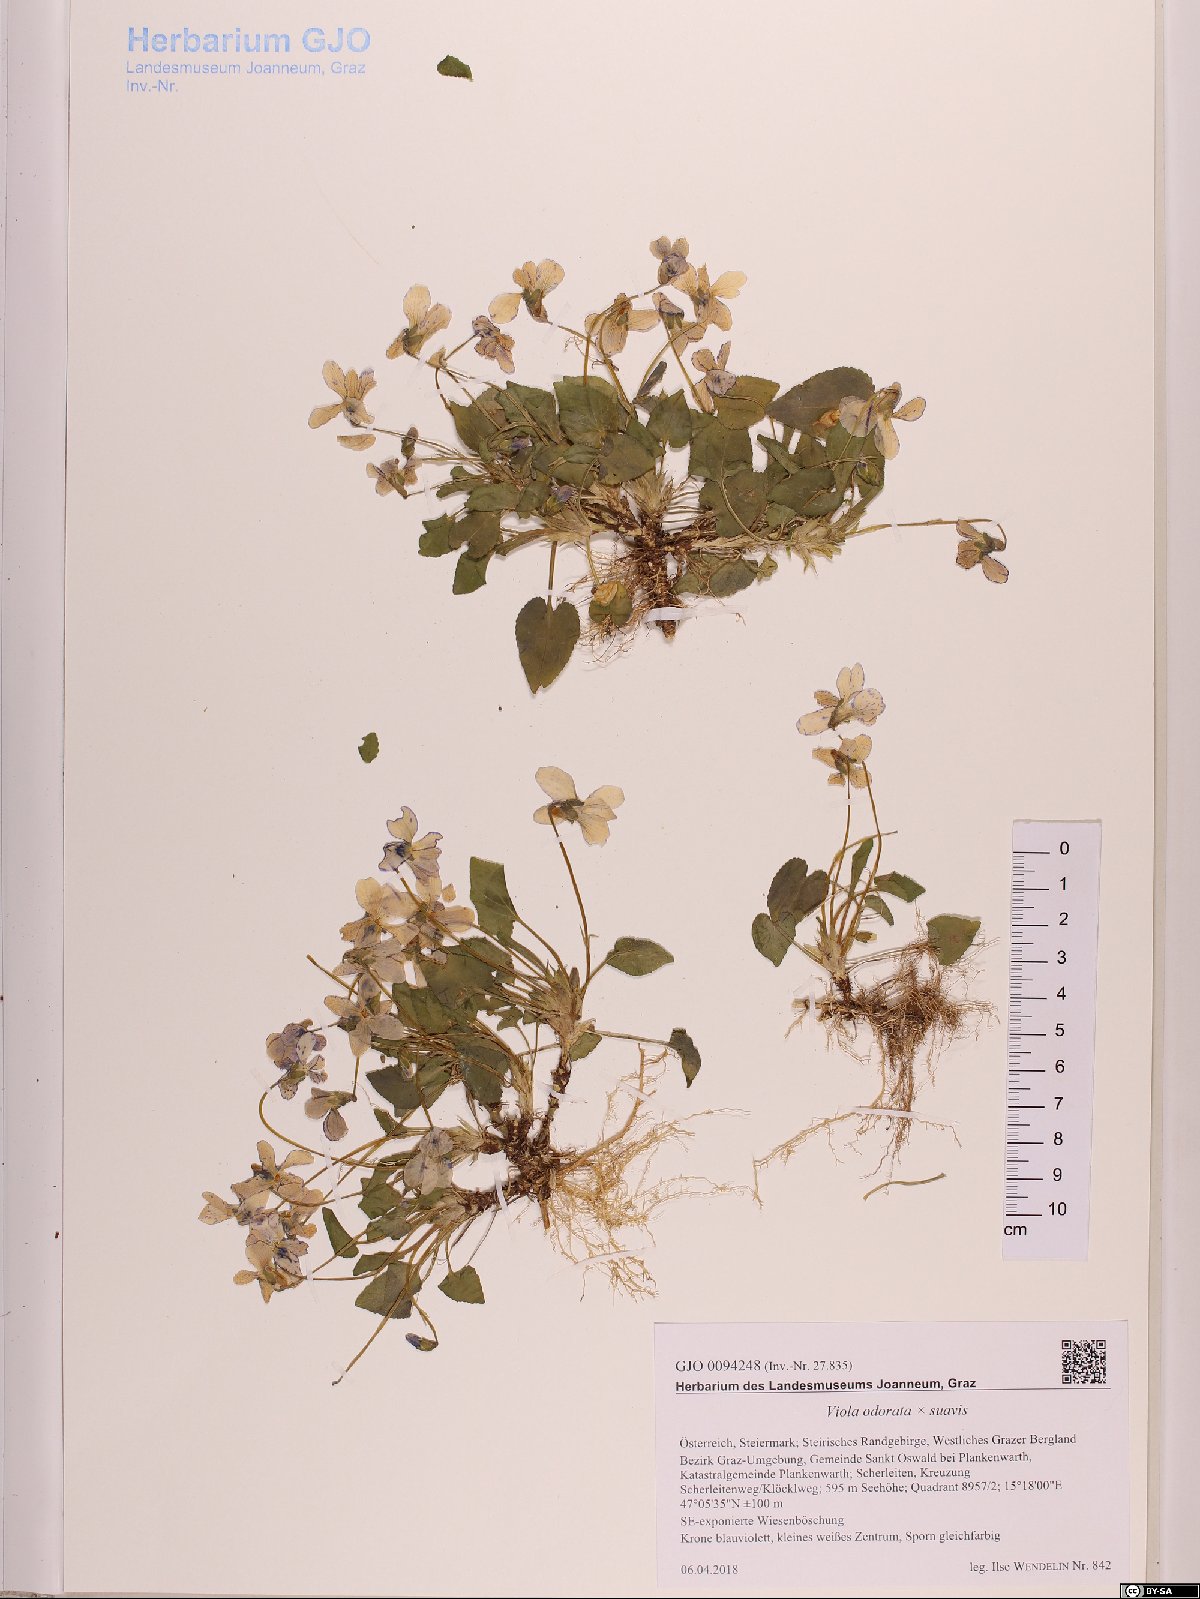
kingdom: Plantae
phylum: Tracheophyta
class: Magnoliopsida
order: Malpighiales
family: Violaceae
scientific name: Violaceae
